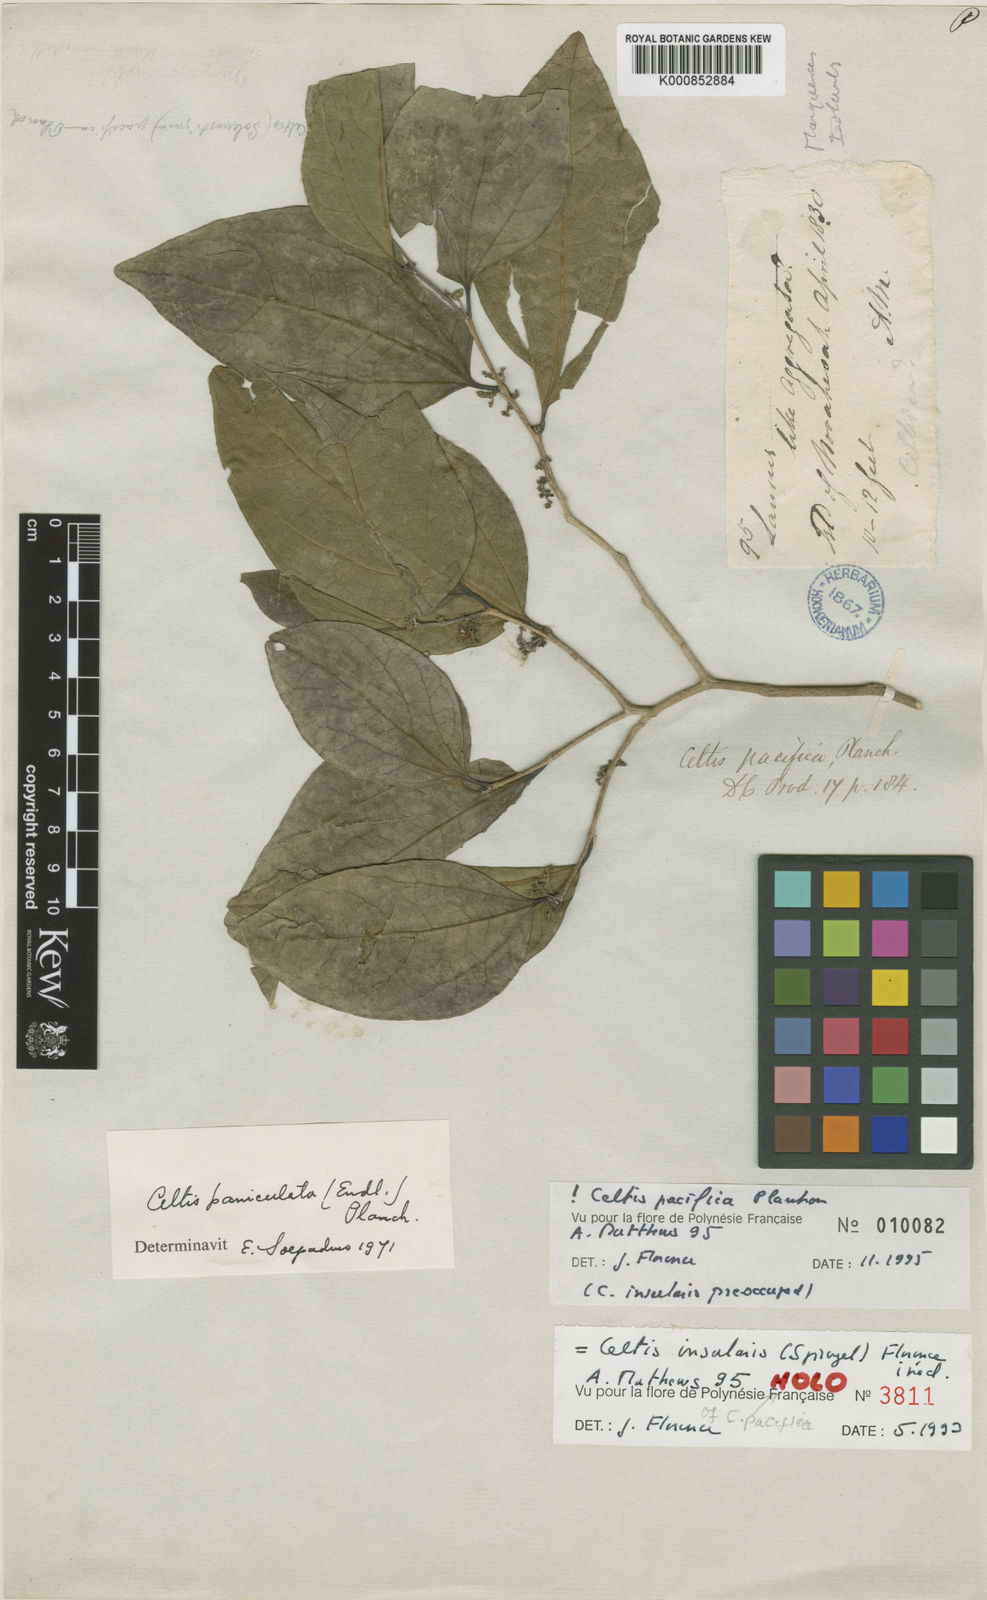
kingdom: Plantae
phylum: Tracheophyta
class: Magnoliopsida
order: Rosales
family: Cannabaceae
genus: Celtis
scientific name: Celtis pacifica
